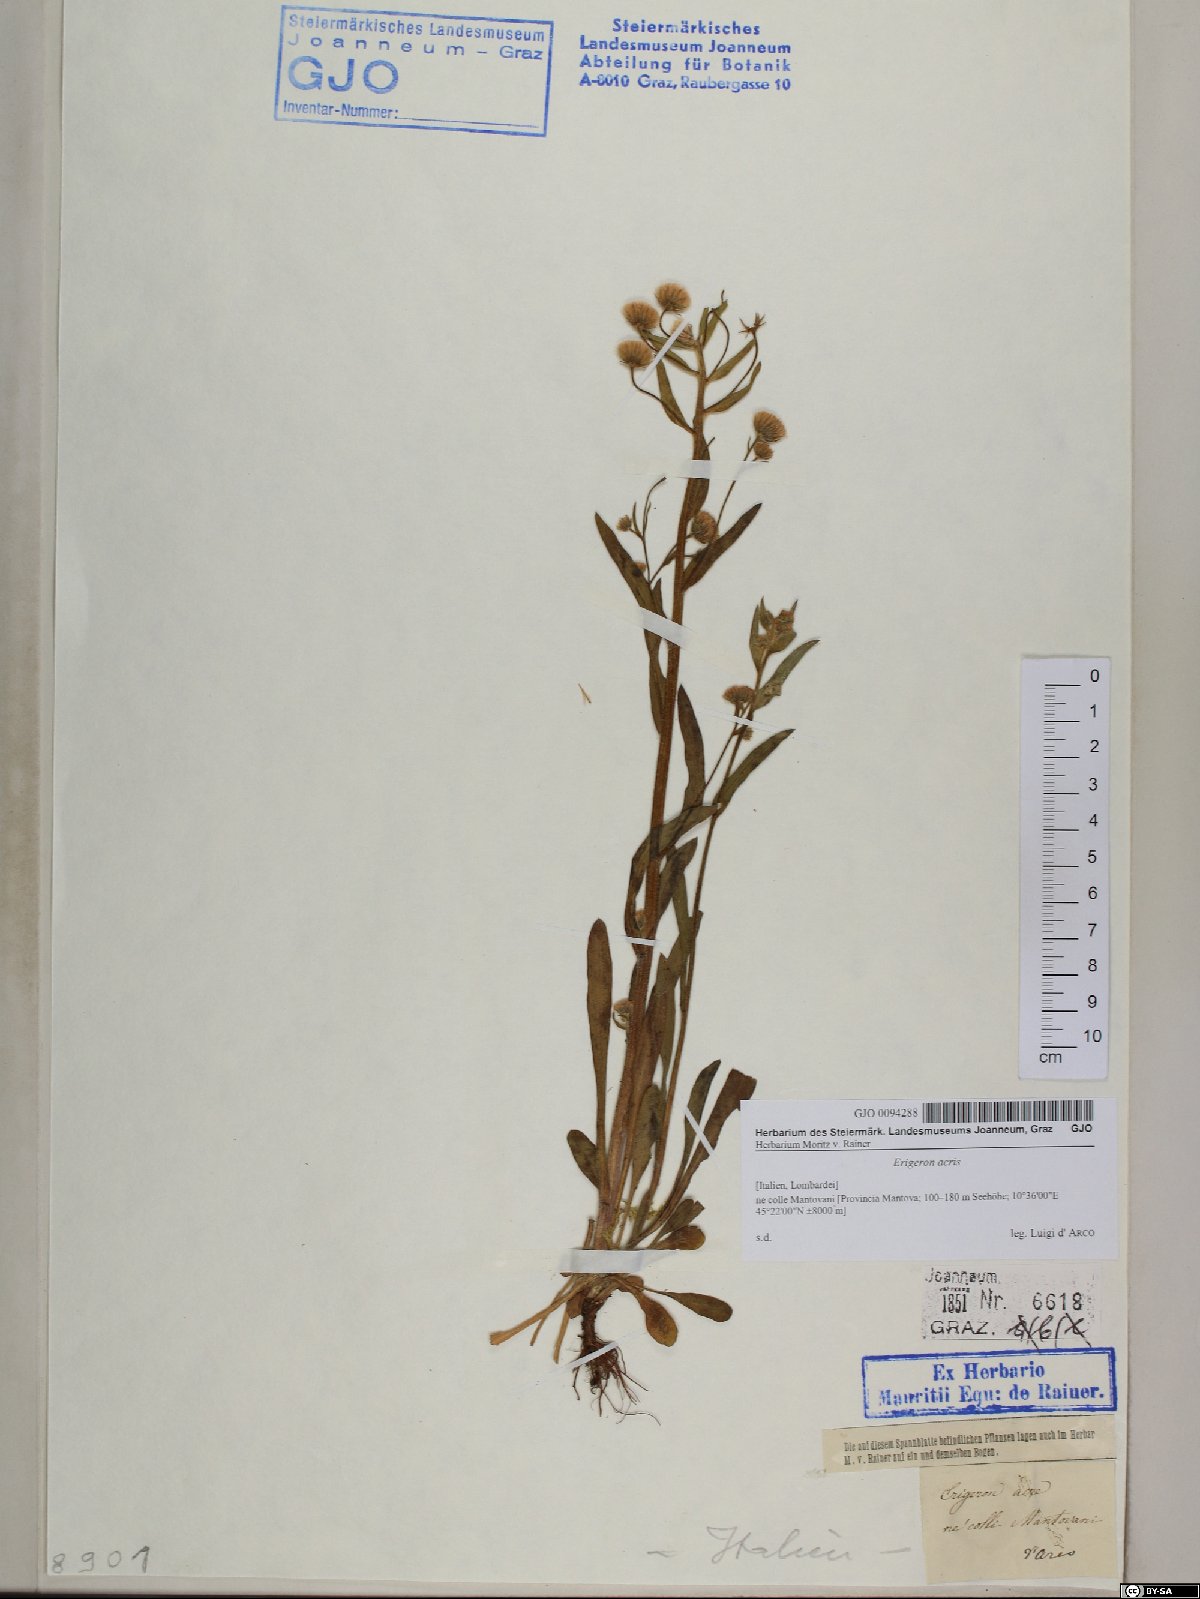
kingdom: Plantae
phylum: Tracheophyta
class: Magnoliopsida
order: Asterales
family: Asteraceae
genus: Erigeron
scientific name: Erigeron acris
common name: Blue fleabane
